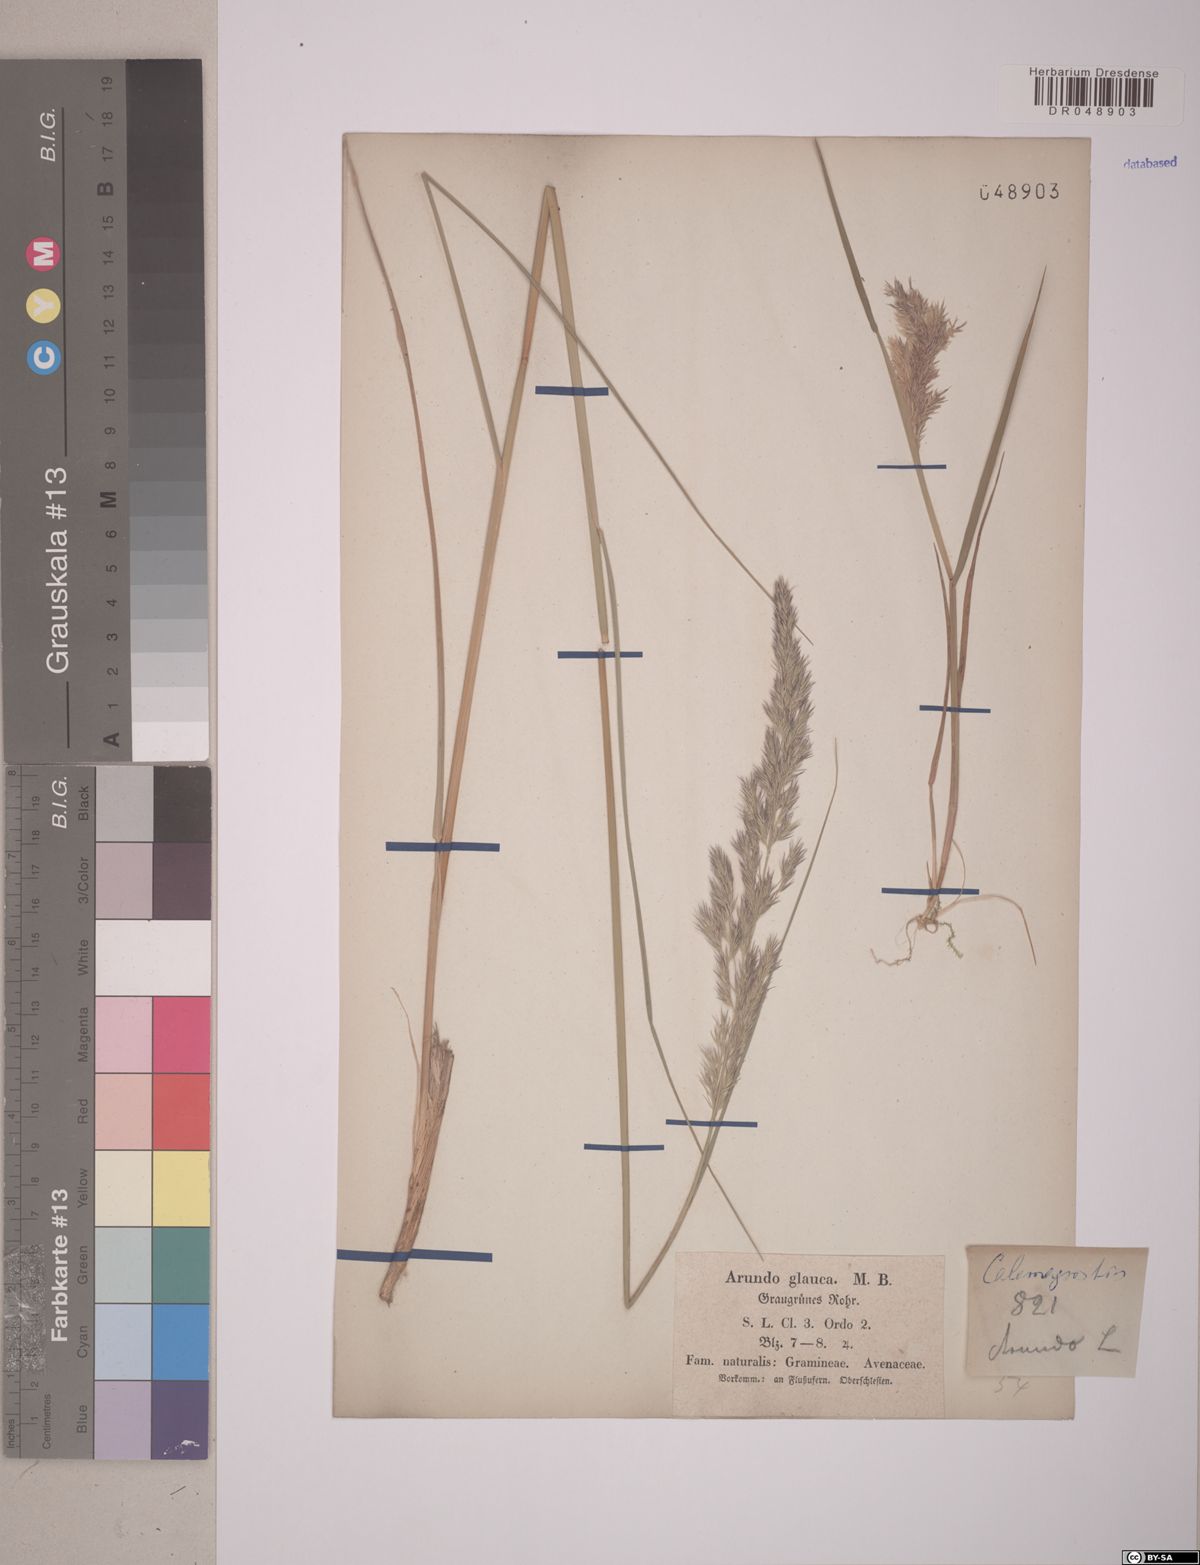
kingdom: Plantae
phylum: Tracheophyta
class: Liliopsida
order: Poales
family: Poaceae
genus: Calamagrostis
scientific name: Calamagrostis
